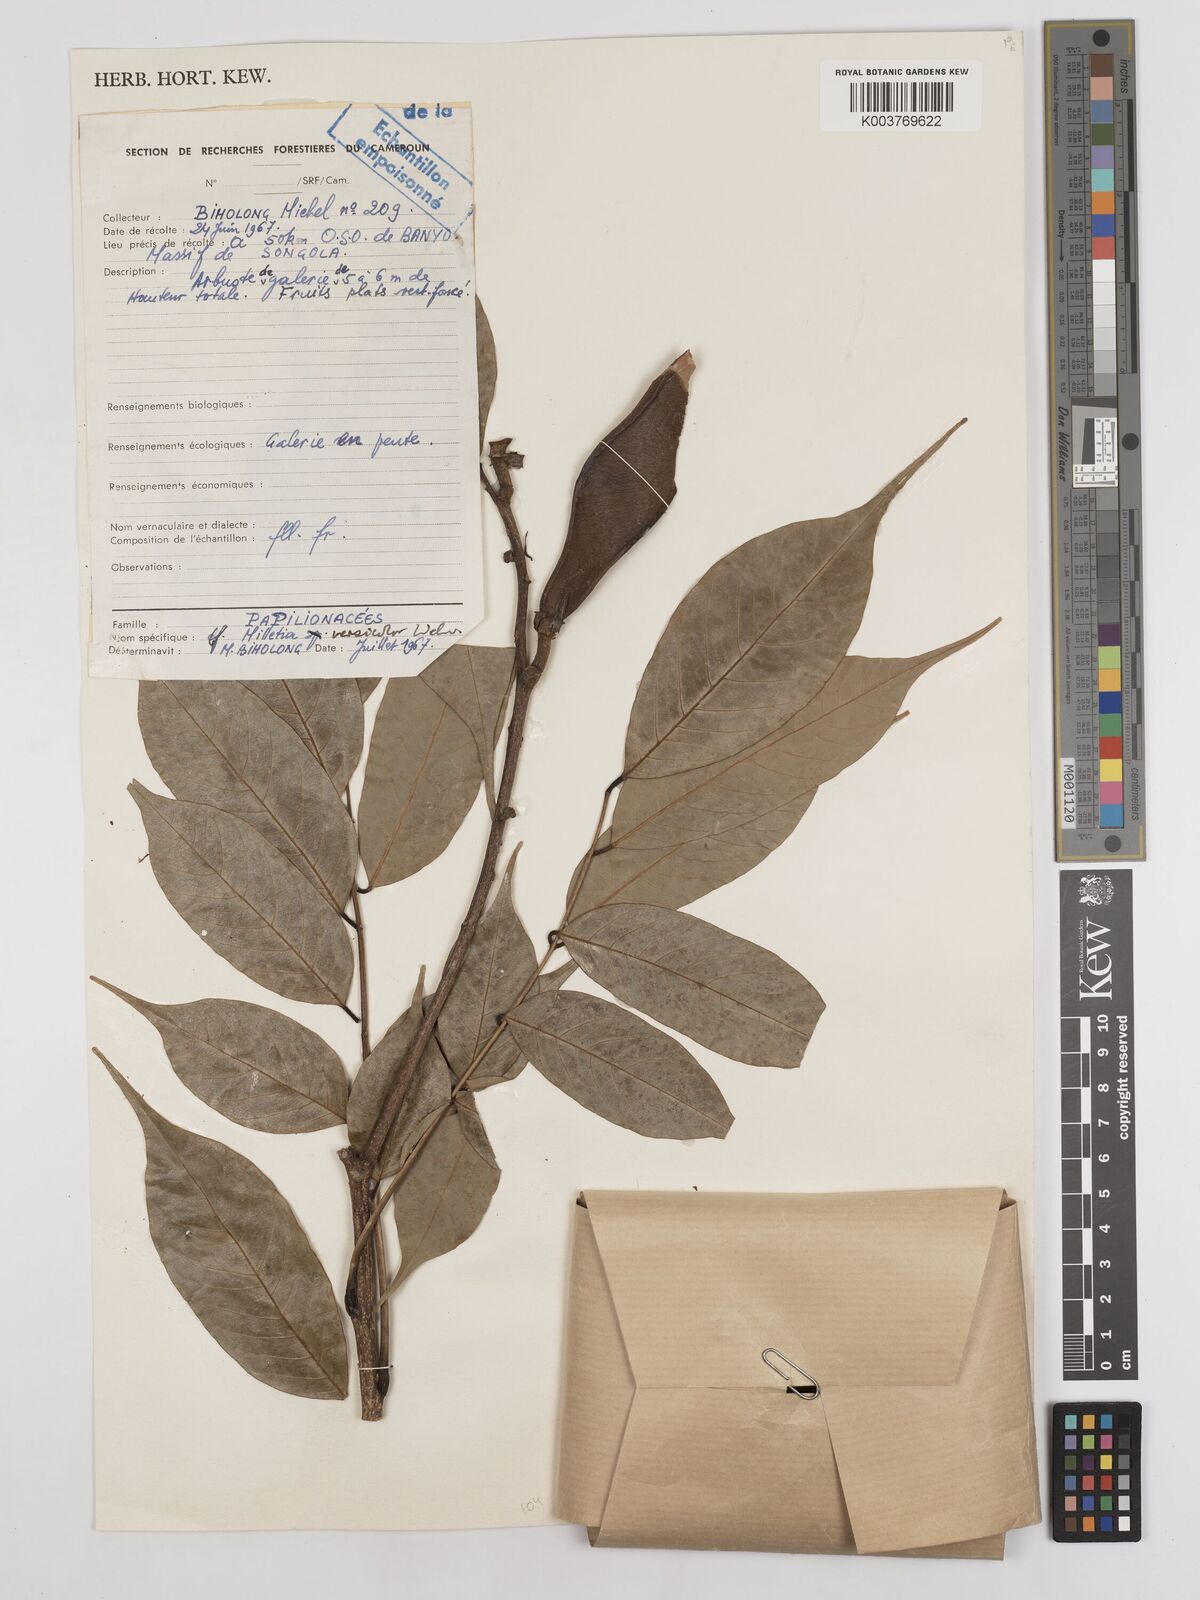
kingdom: Plantae
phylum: Tracheophyta
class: Magnoliopsida
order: Fabales
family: Fabaceae
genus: Millettia
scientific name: Millettia versicolor
